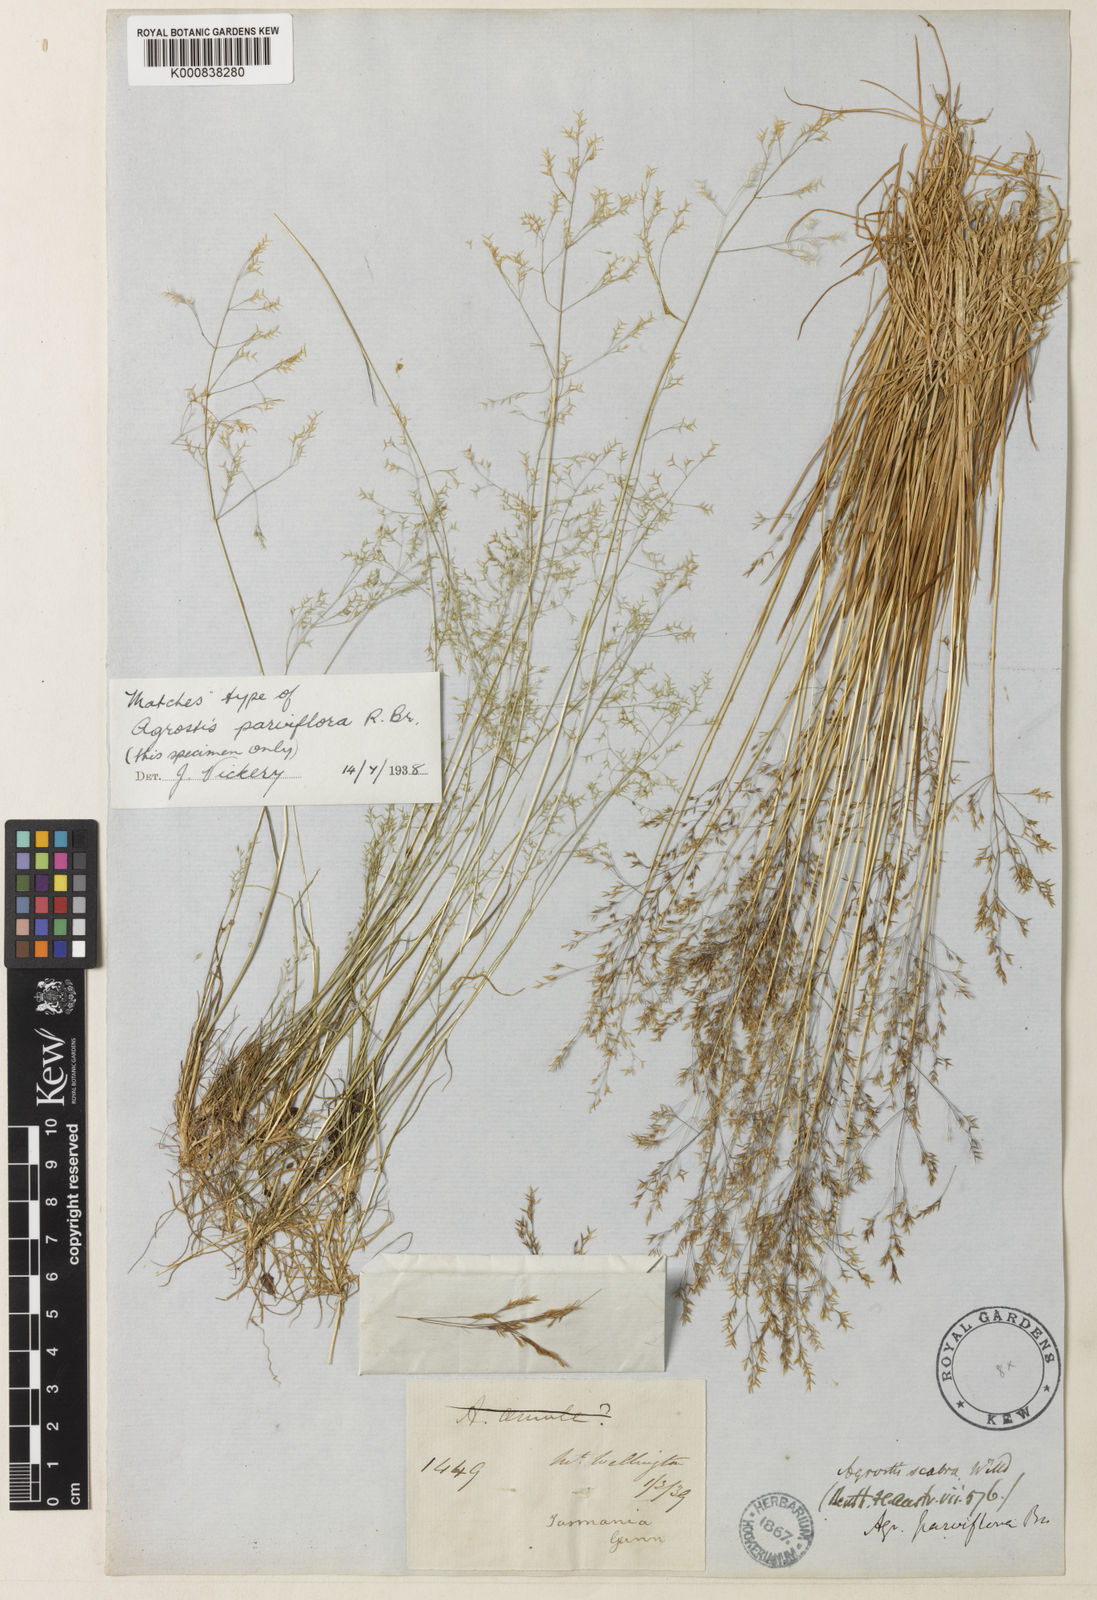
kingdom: Plantae
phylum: Tracheophyta
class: Liliopsida
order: Poales
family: Poaceae
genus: Agrostis
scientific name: Agrostis parviflora
